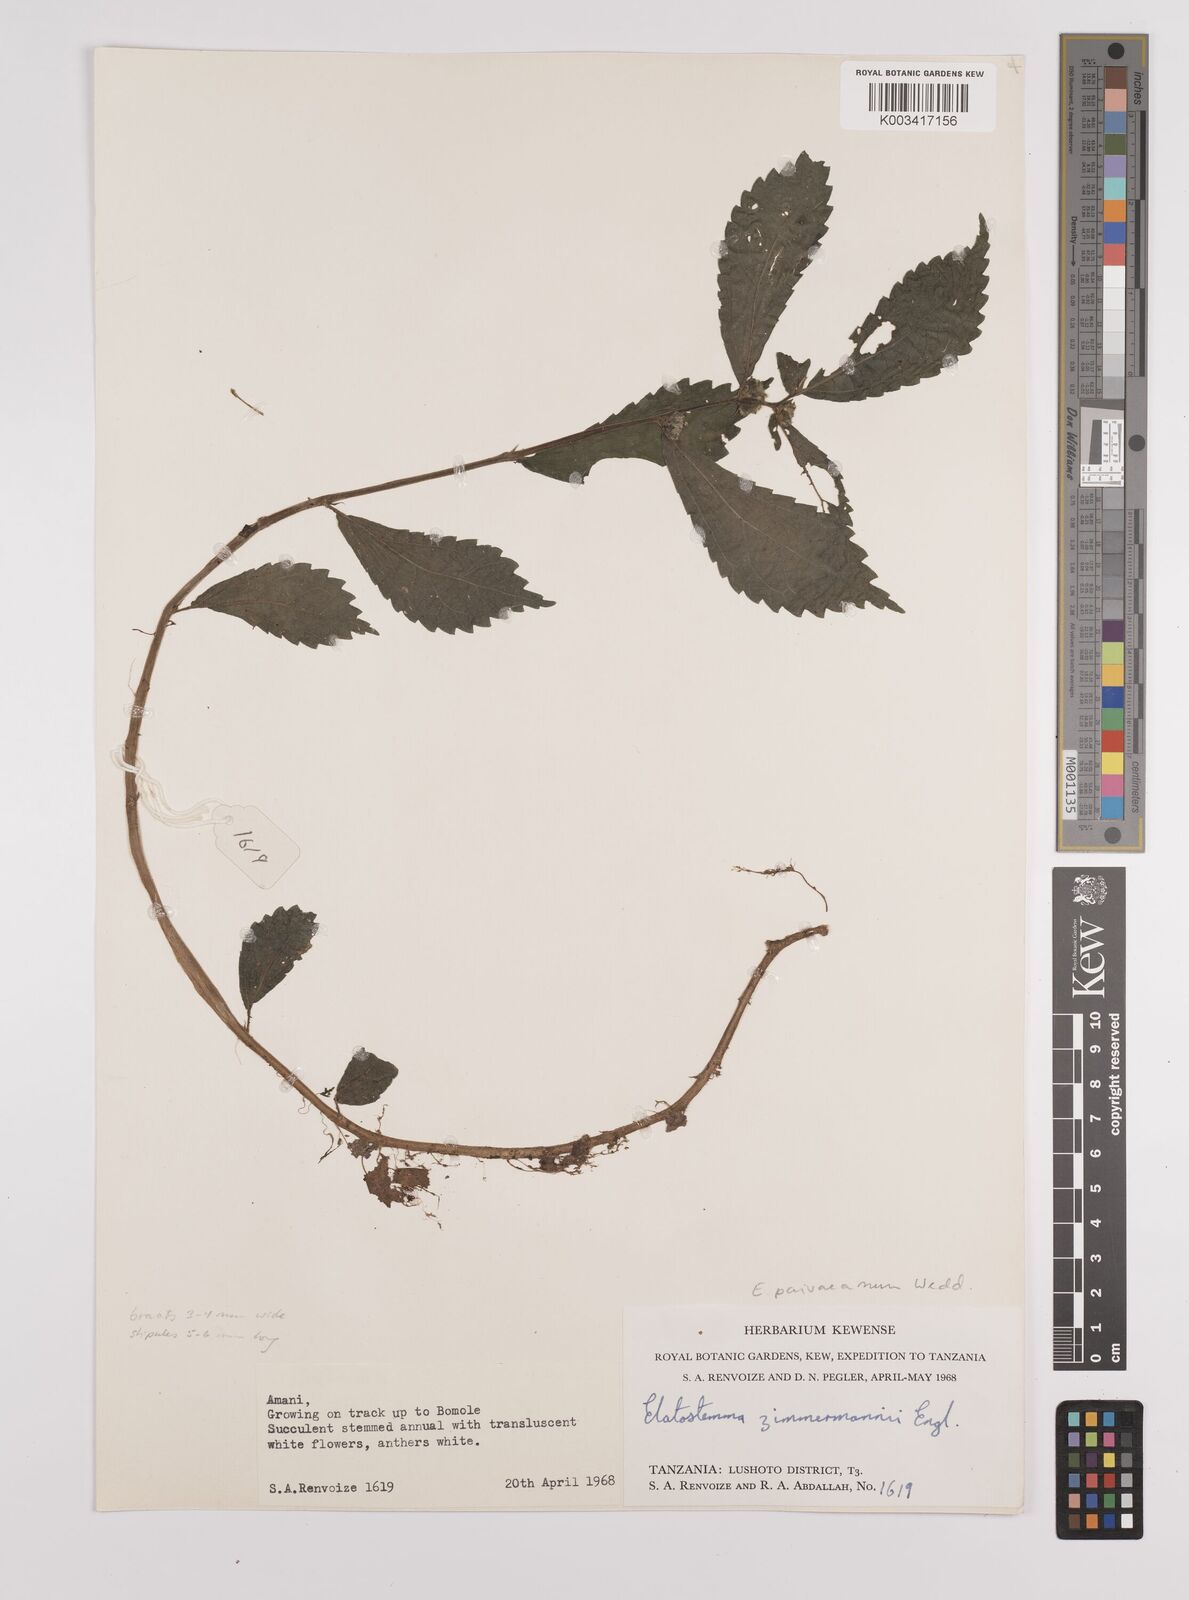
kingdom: Plantae
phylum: Tracheophyta
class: Magnoliopsida
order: Rosales
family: Urticaceae
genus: Elatostema
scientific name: Elatostema paivaeanum
